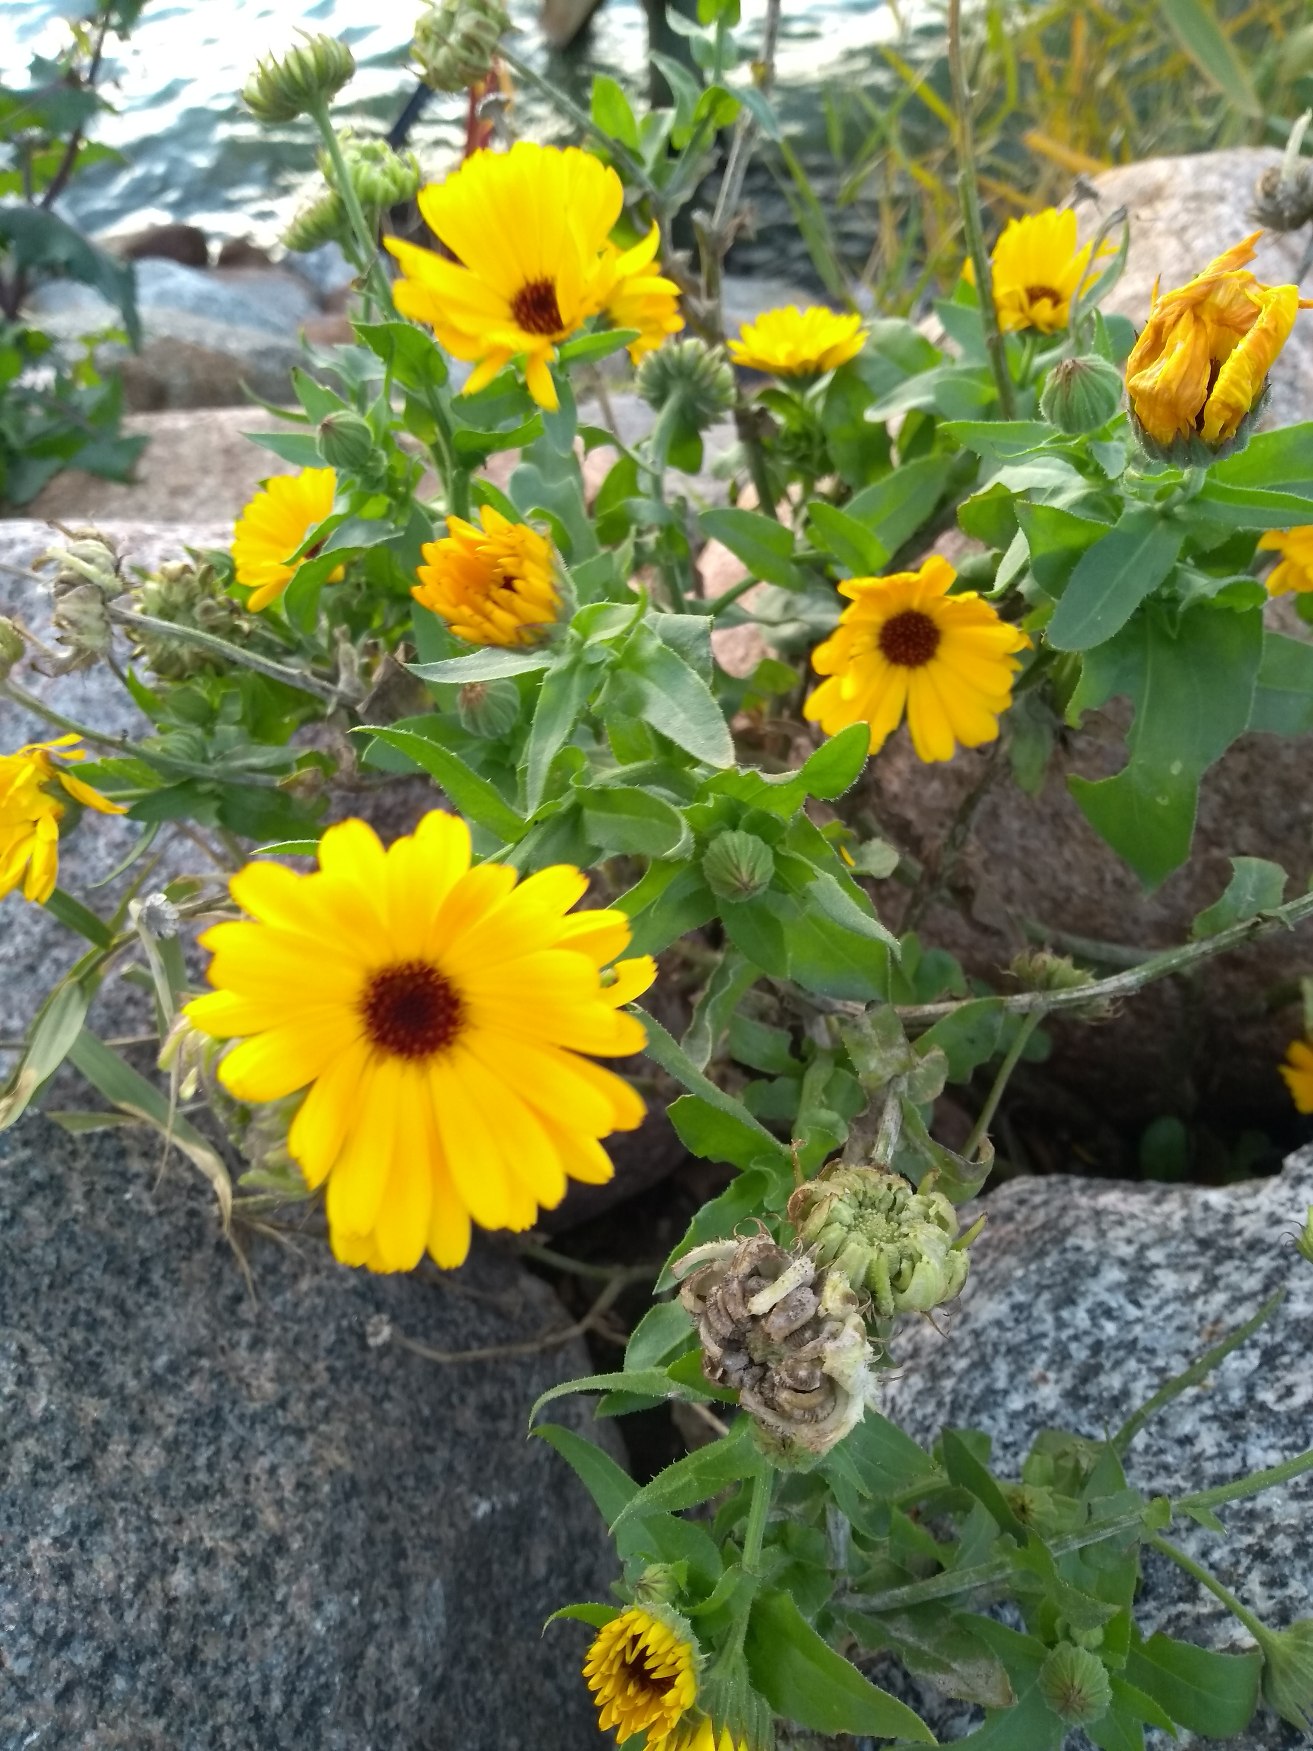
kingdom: Plantae
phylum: Tracheophyta
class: Magnoliopsida
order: Asterales
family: Asteraceae
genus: Calendula
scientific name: Calendula officinalis
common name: Have-morgenfrue
